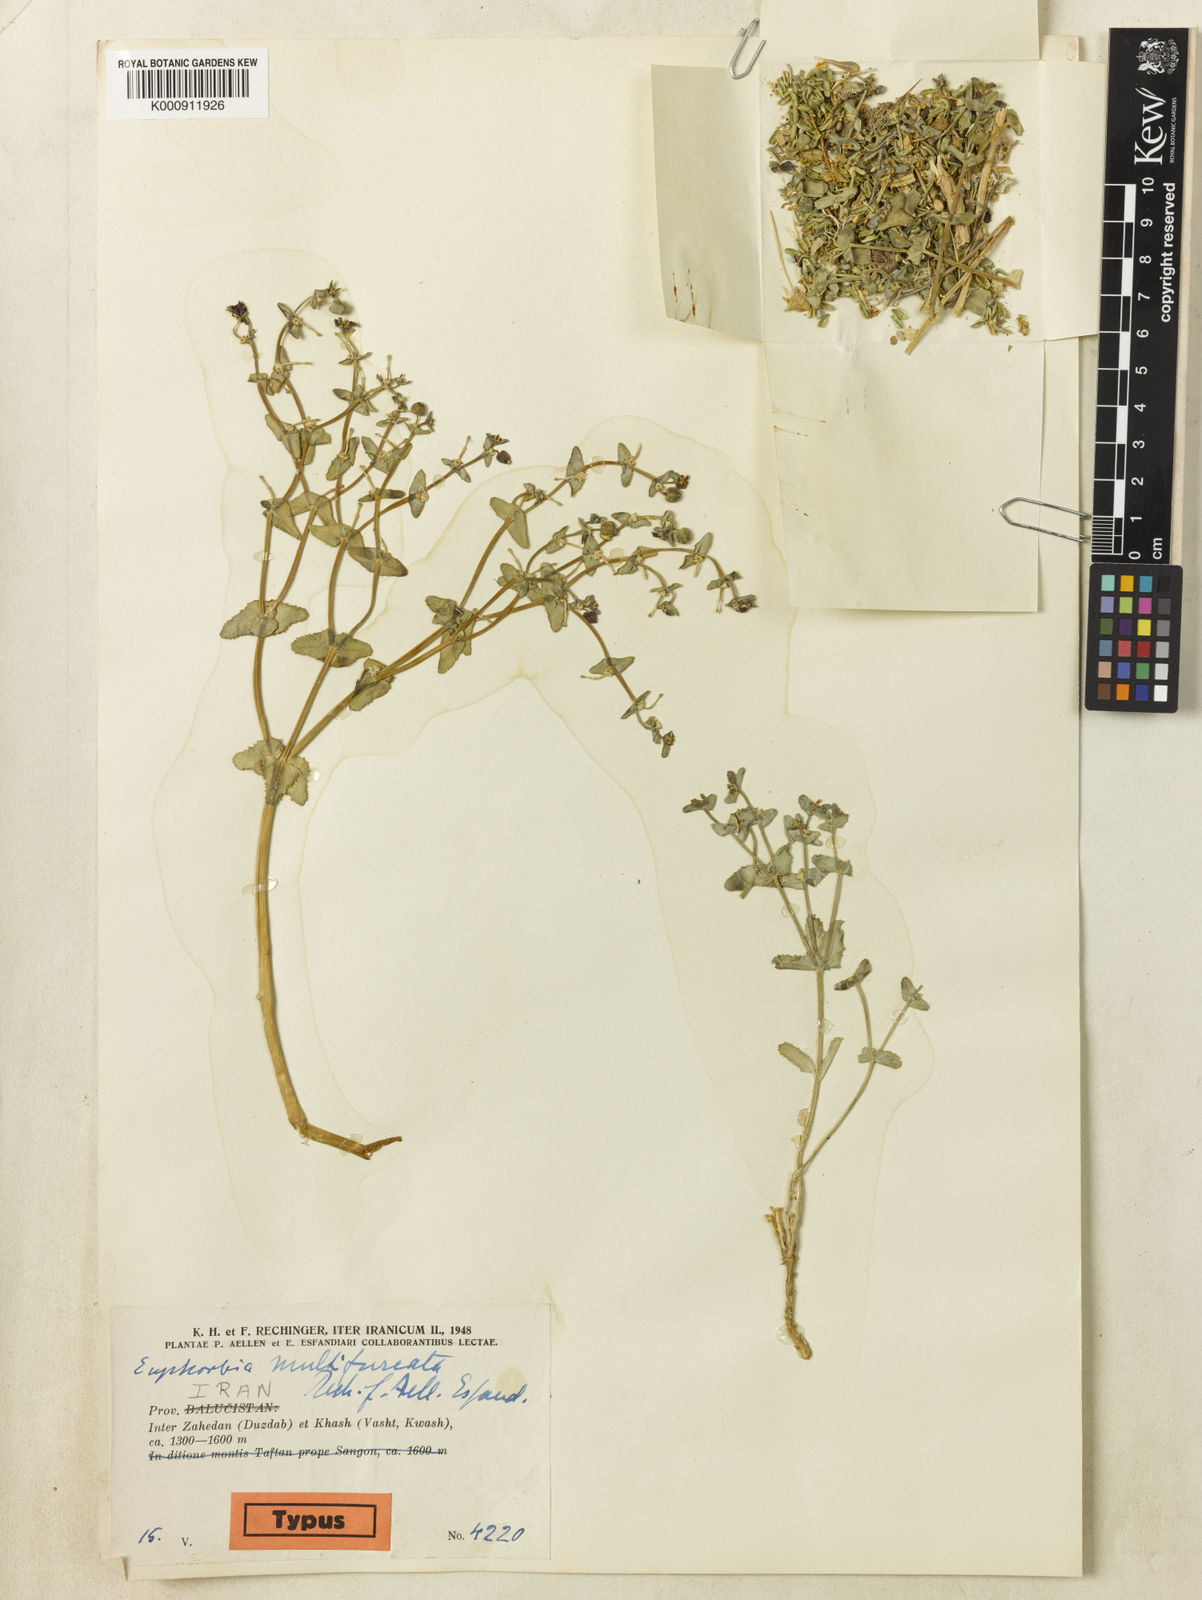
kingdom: Plantae
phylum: Tracheophyta
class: Magnoliopsida
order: Malpighiales
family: Euphorbiaceae
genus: Euphorbia
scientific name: Euphorbia caeladenia
